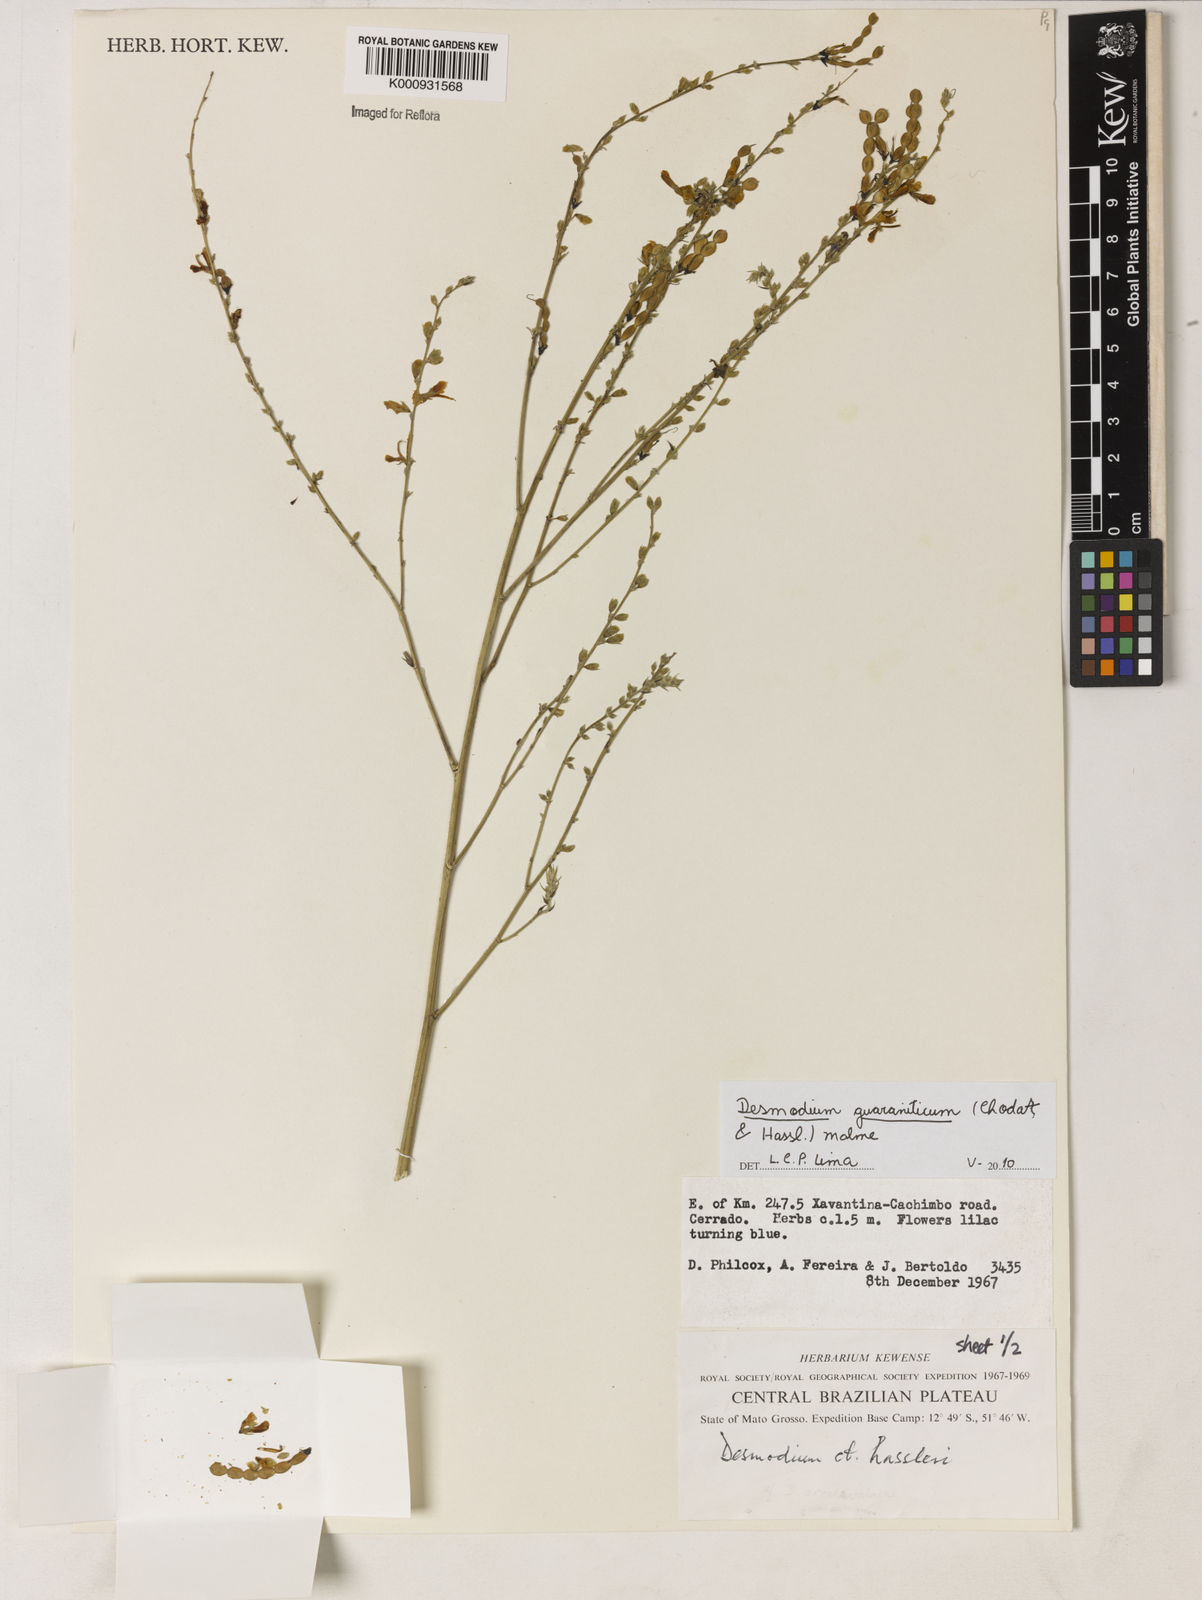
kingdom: Plantae
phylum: Tracheophyta
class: Magnoliopsida
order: Fabales
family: Fabaceae
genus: Desmodium
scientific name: Desmodium guaraniticum
